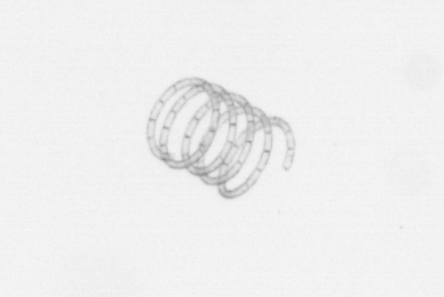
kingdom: Chromista
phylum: Ochrophyta
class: Bacillariophyceae
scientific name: Bacillariophyceae
